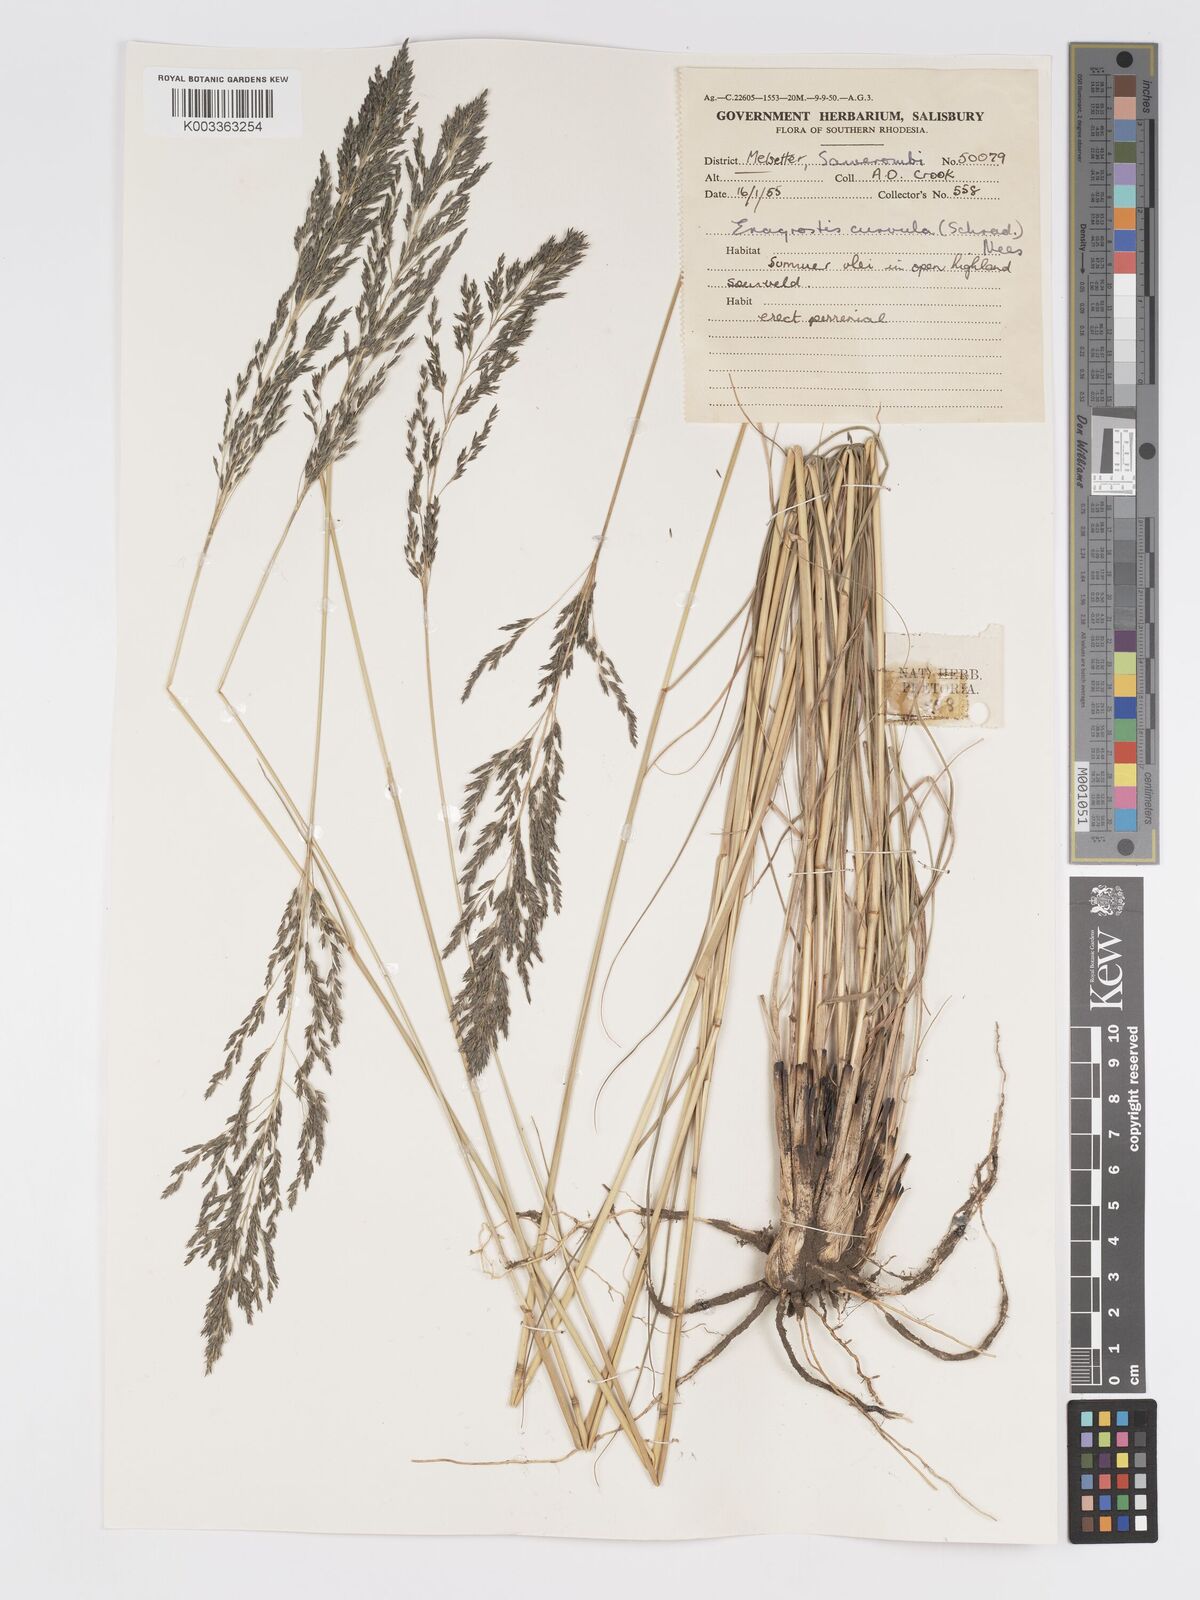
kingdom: Plantae
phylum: Tracheophyta
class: Liliopsida
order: Poales
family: Poaceae
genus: Eragrostis
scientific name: Eragrostis curvula
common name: African love-grass
